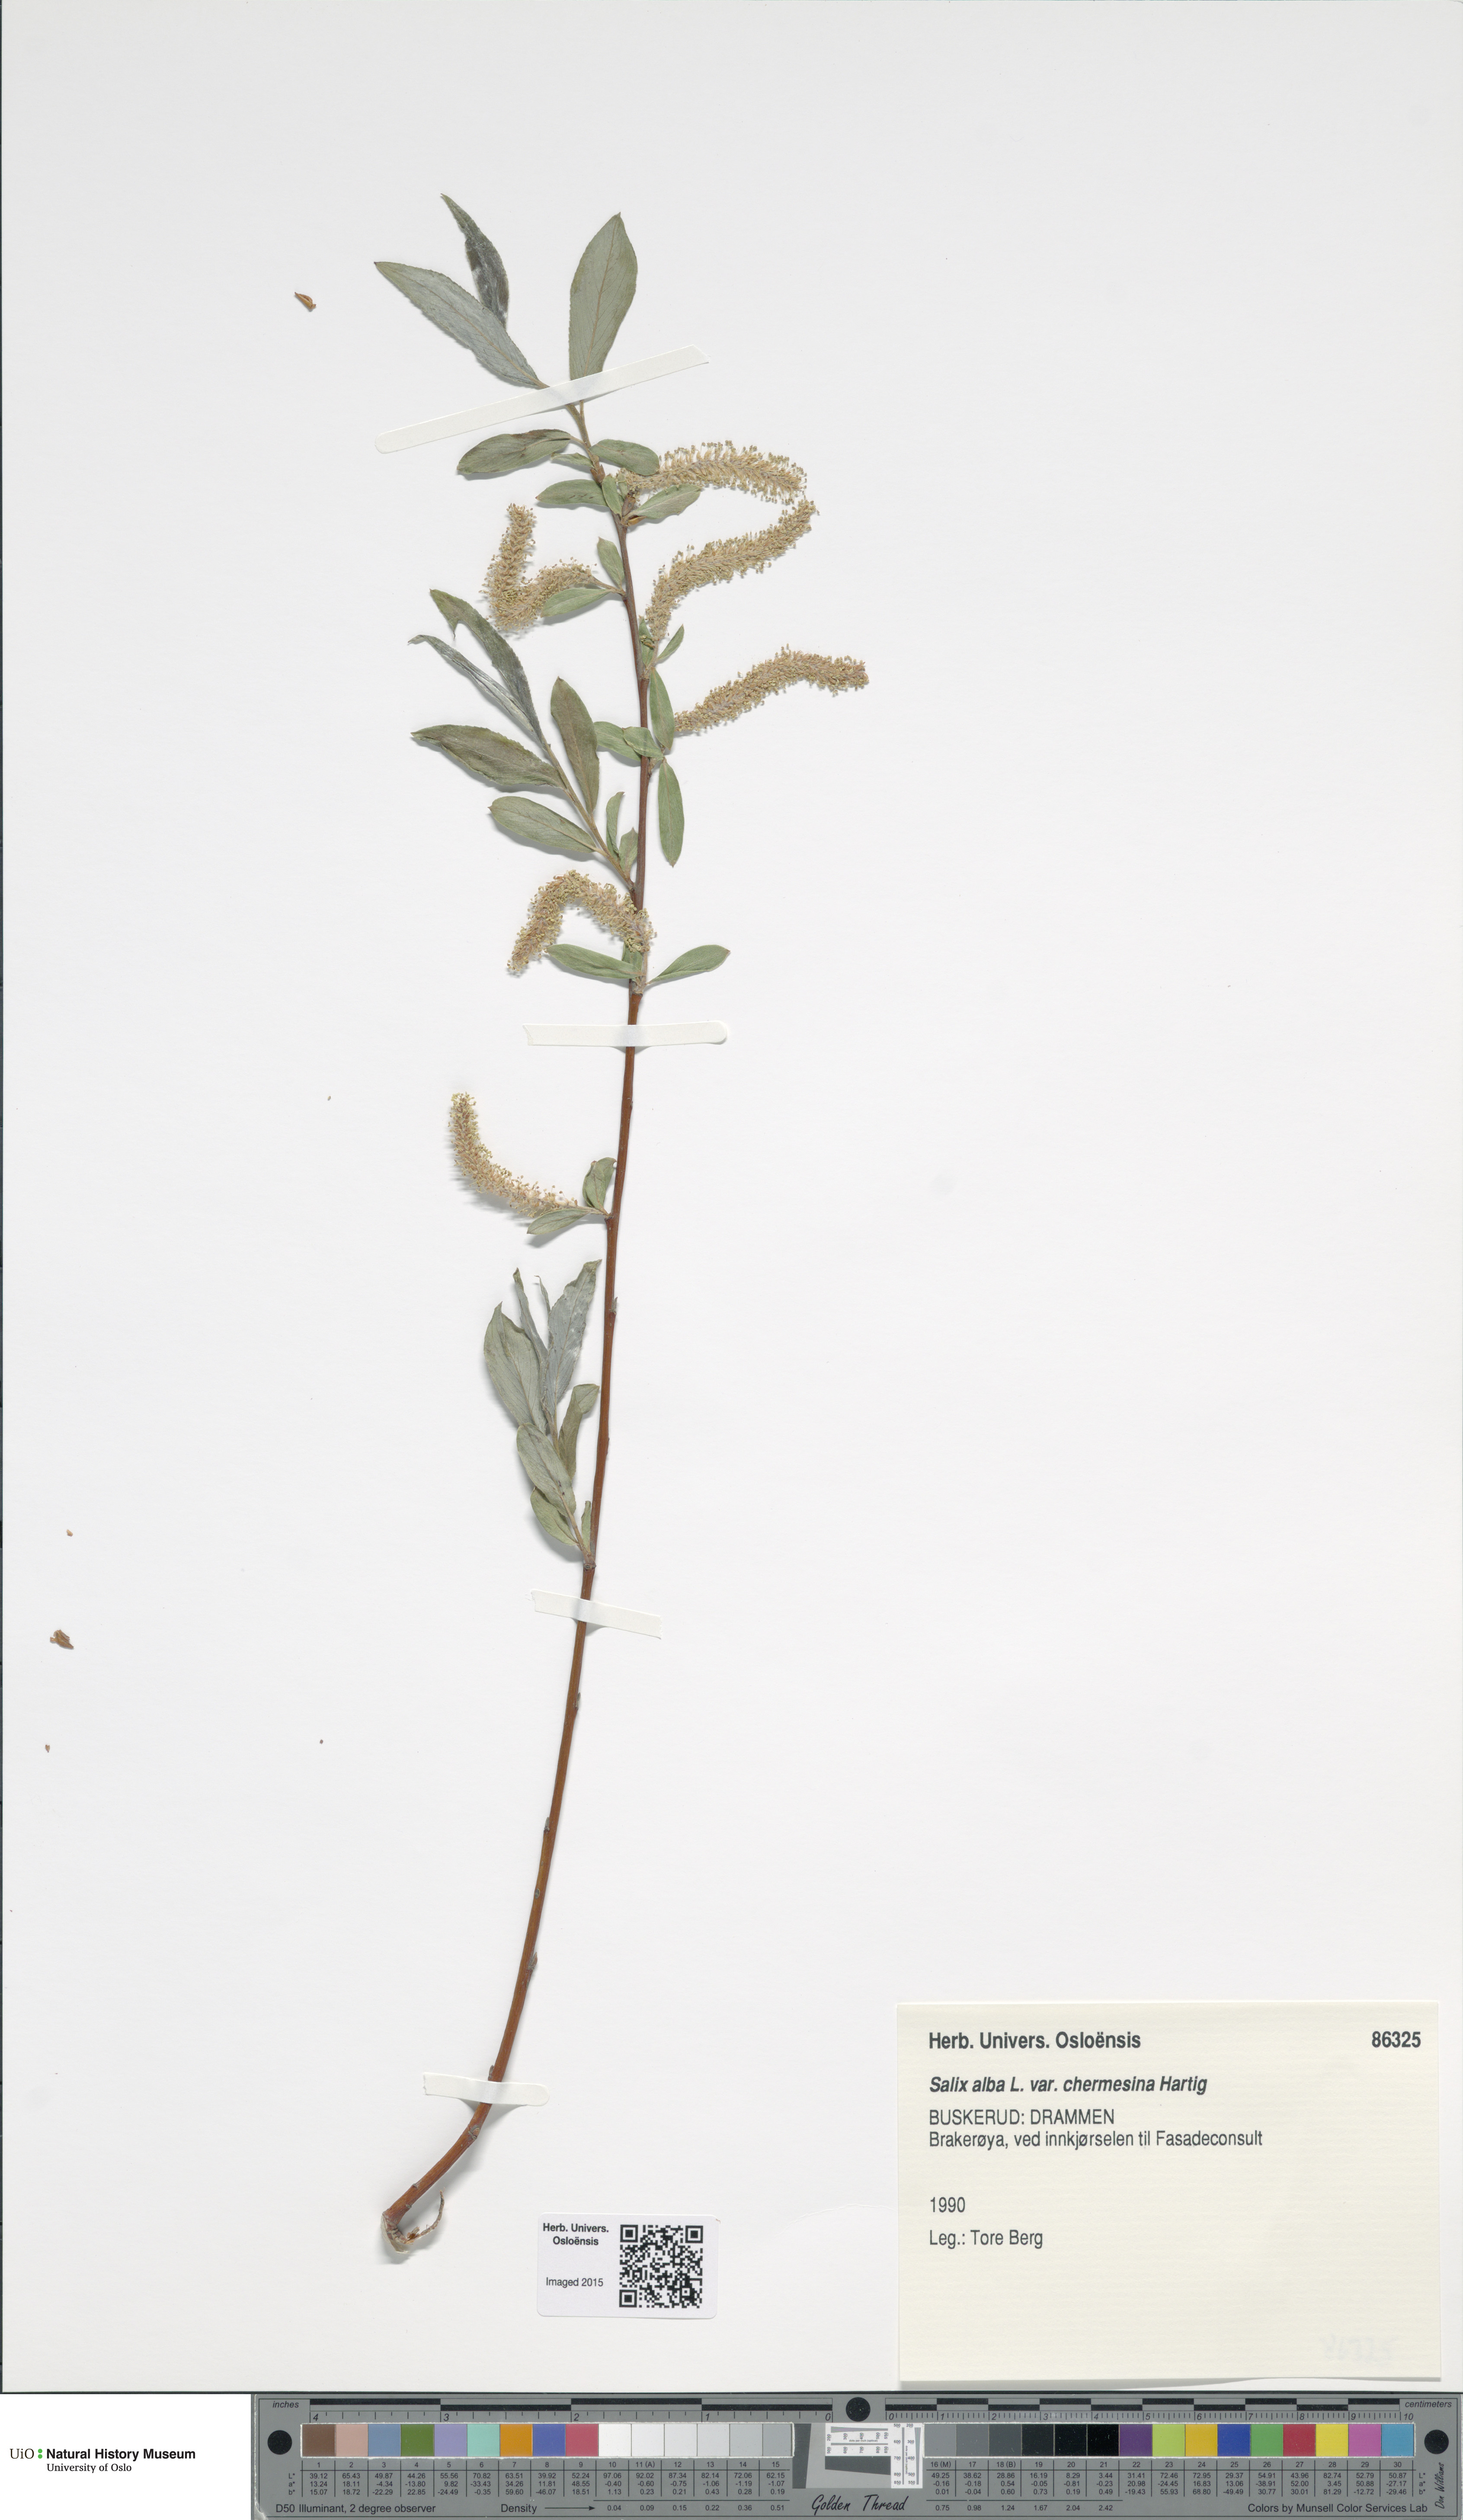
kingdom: Plantae
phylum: Tracheophyta
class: Magnoliopsida
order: Malpighiales
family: Salicaceae
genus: Salix
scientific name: Salix alba
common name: White willow
